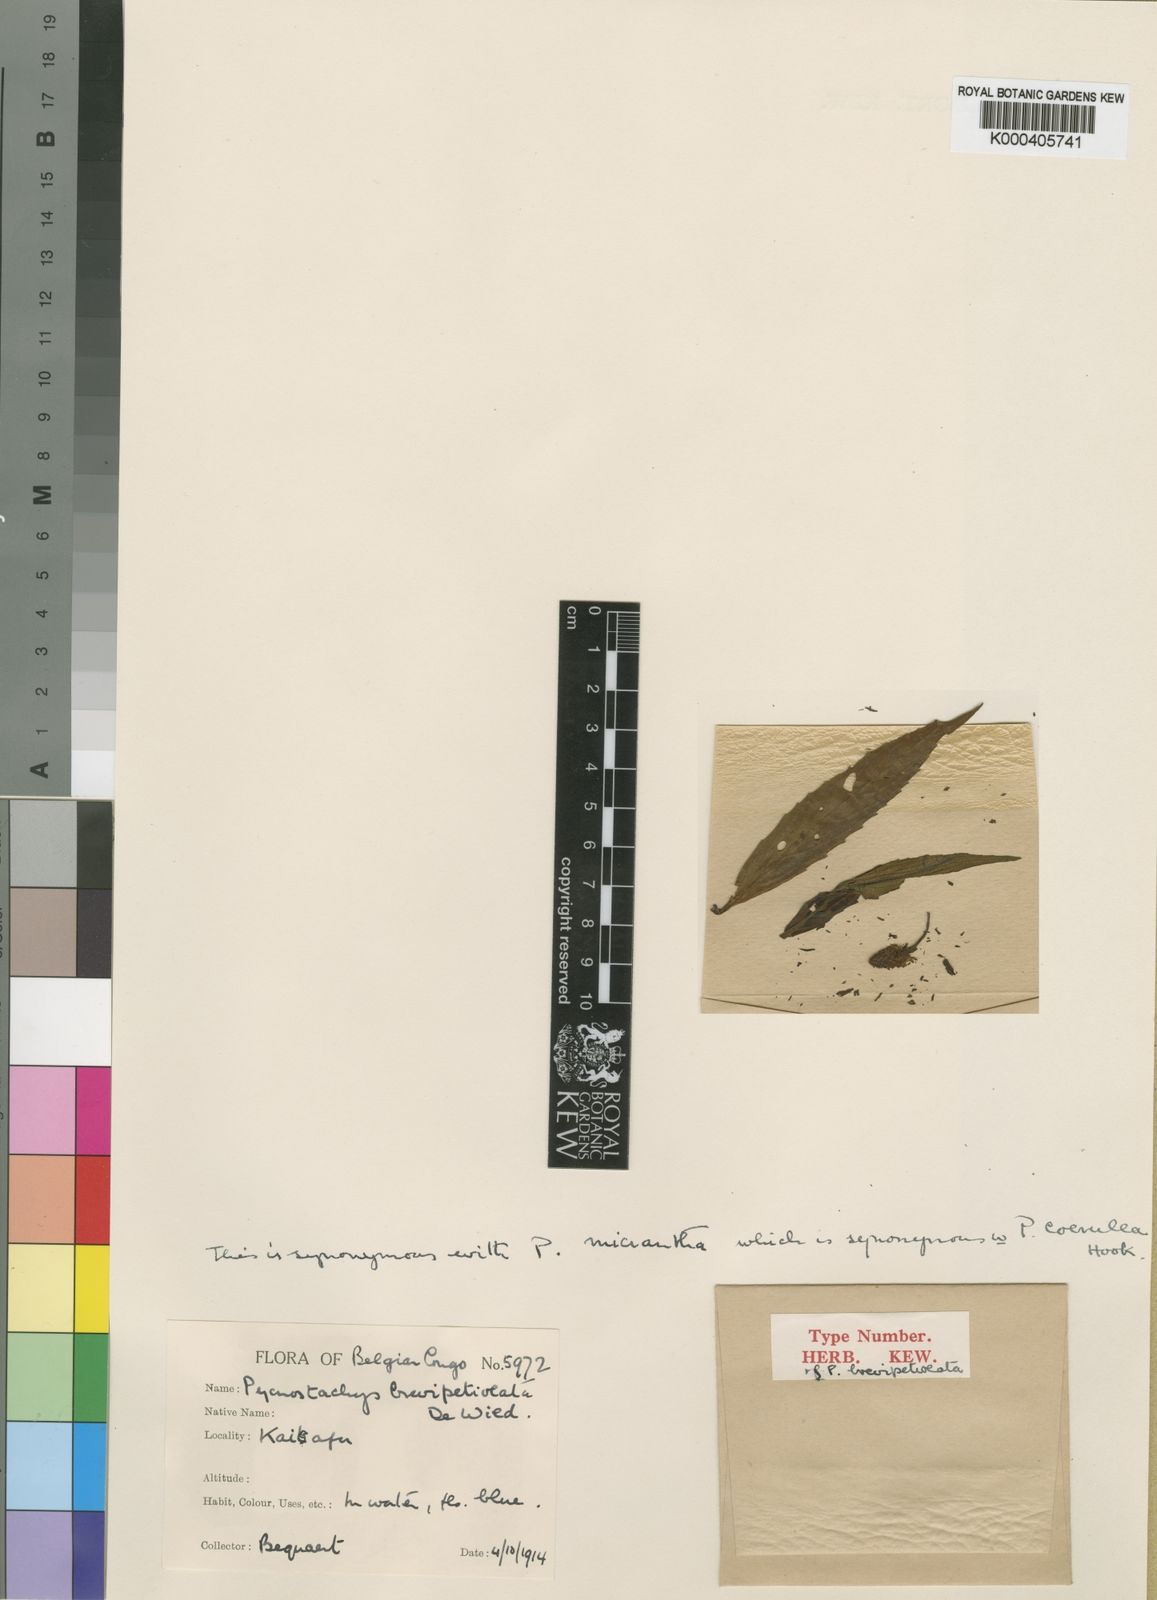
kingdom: Plantae
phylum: Tracheophyta
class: Magnoliopsida
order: Lamiales
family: Lamiaceae
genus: Coleus
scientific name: Coleus stenostachys
